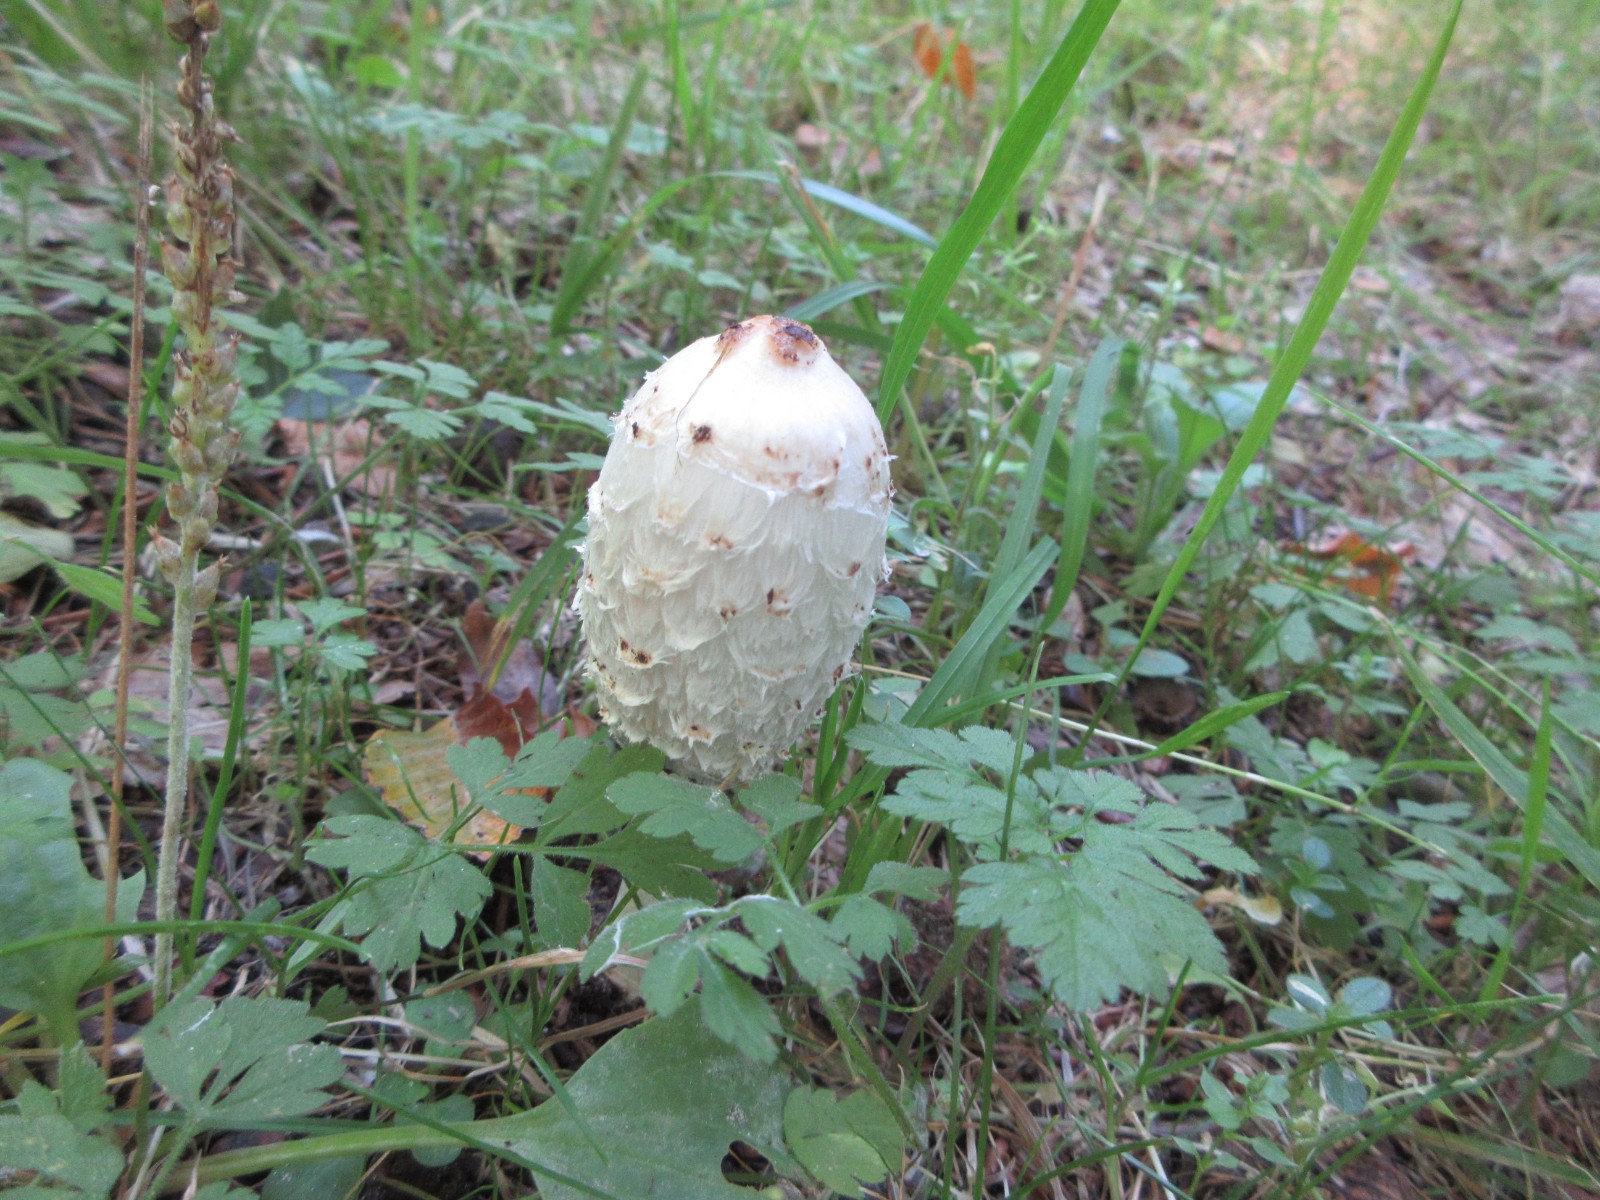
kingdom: Fungi
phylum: Basidiomycota
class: Agaricomycetes
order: Agaricales
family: Agaricaceae
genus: Coprinus
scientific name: Coprinus comatus
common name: stor parykhat
